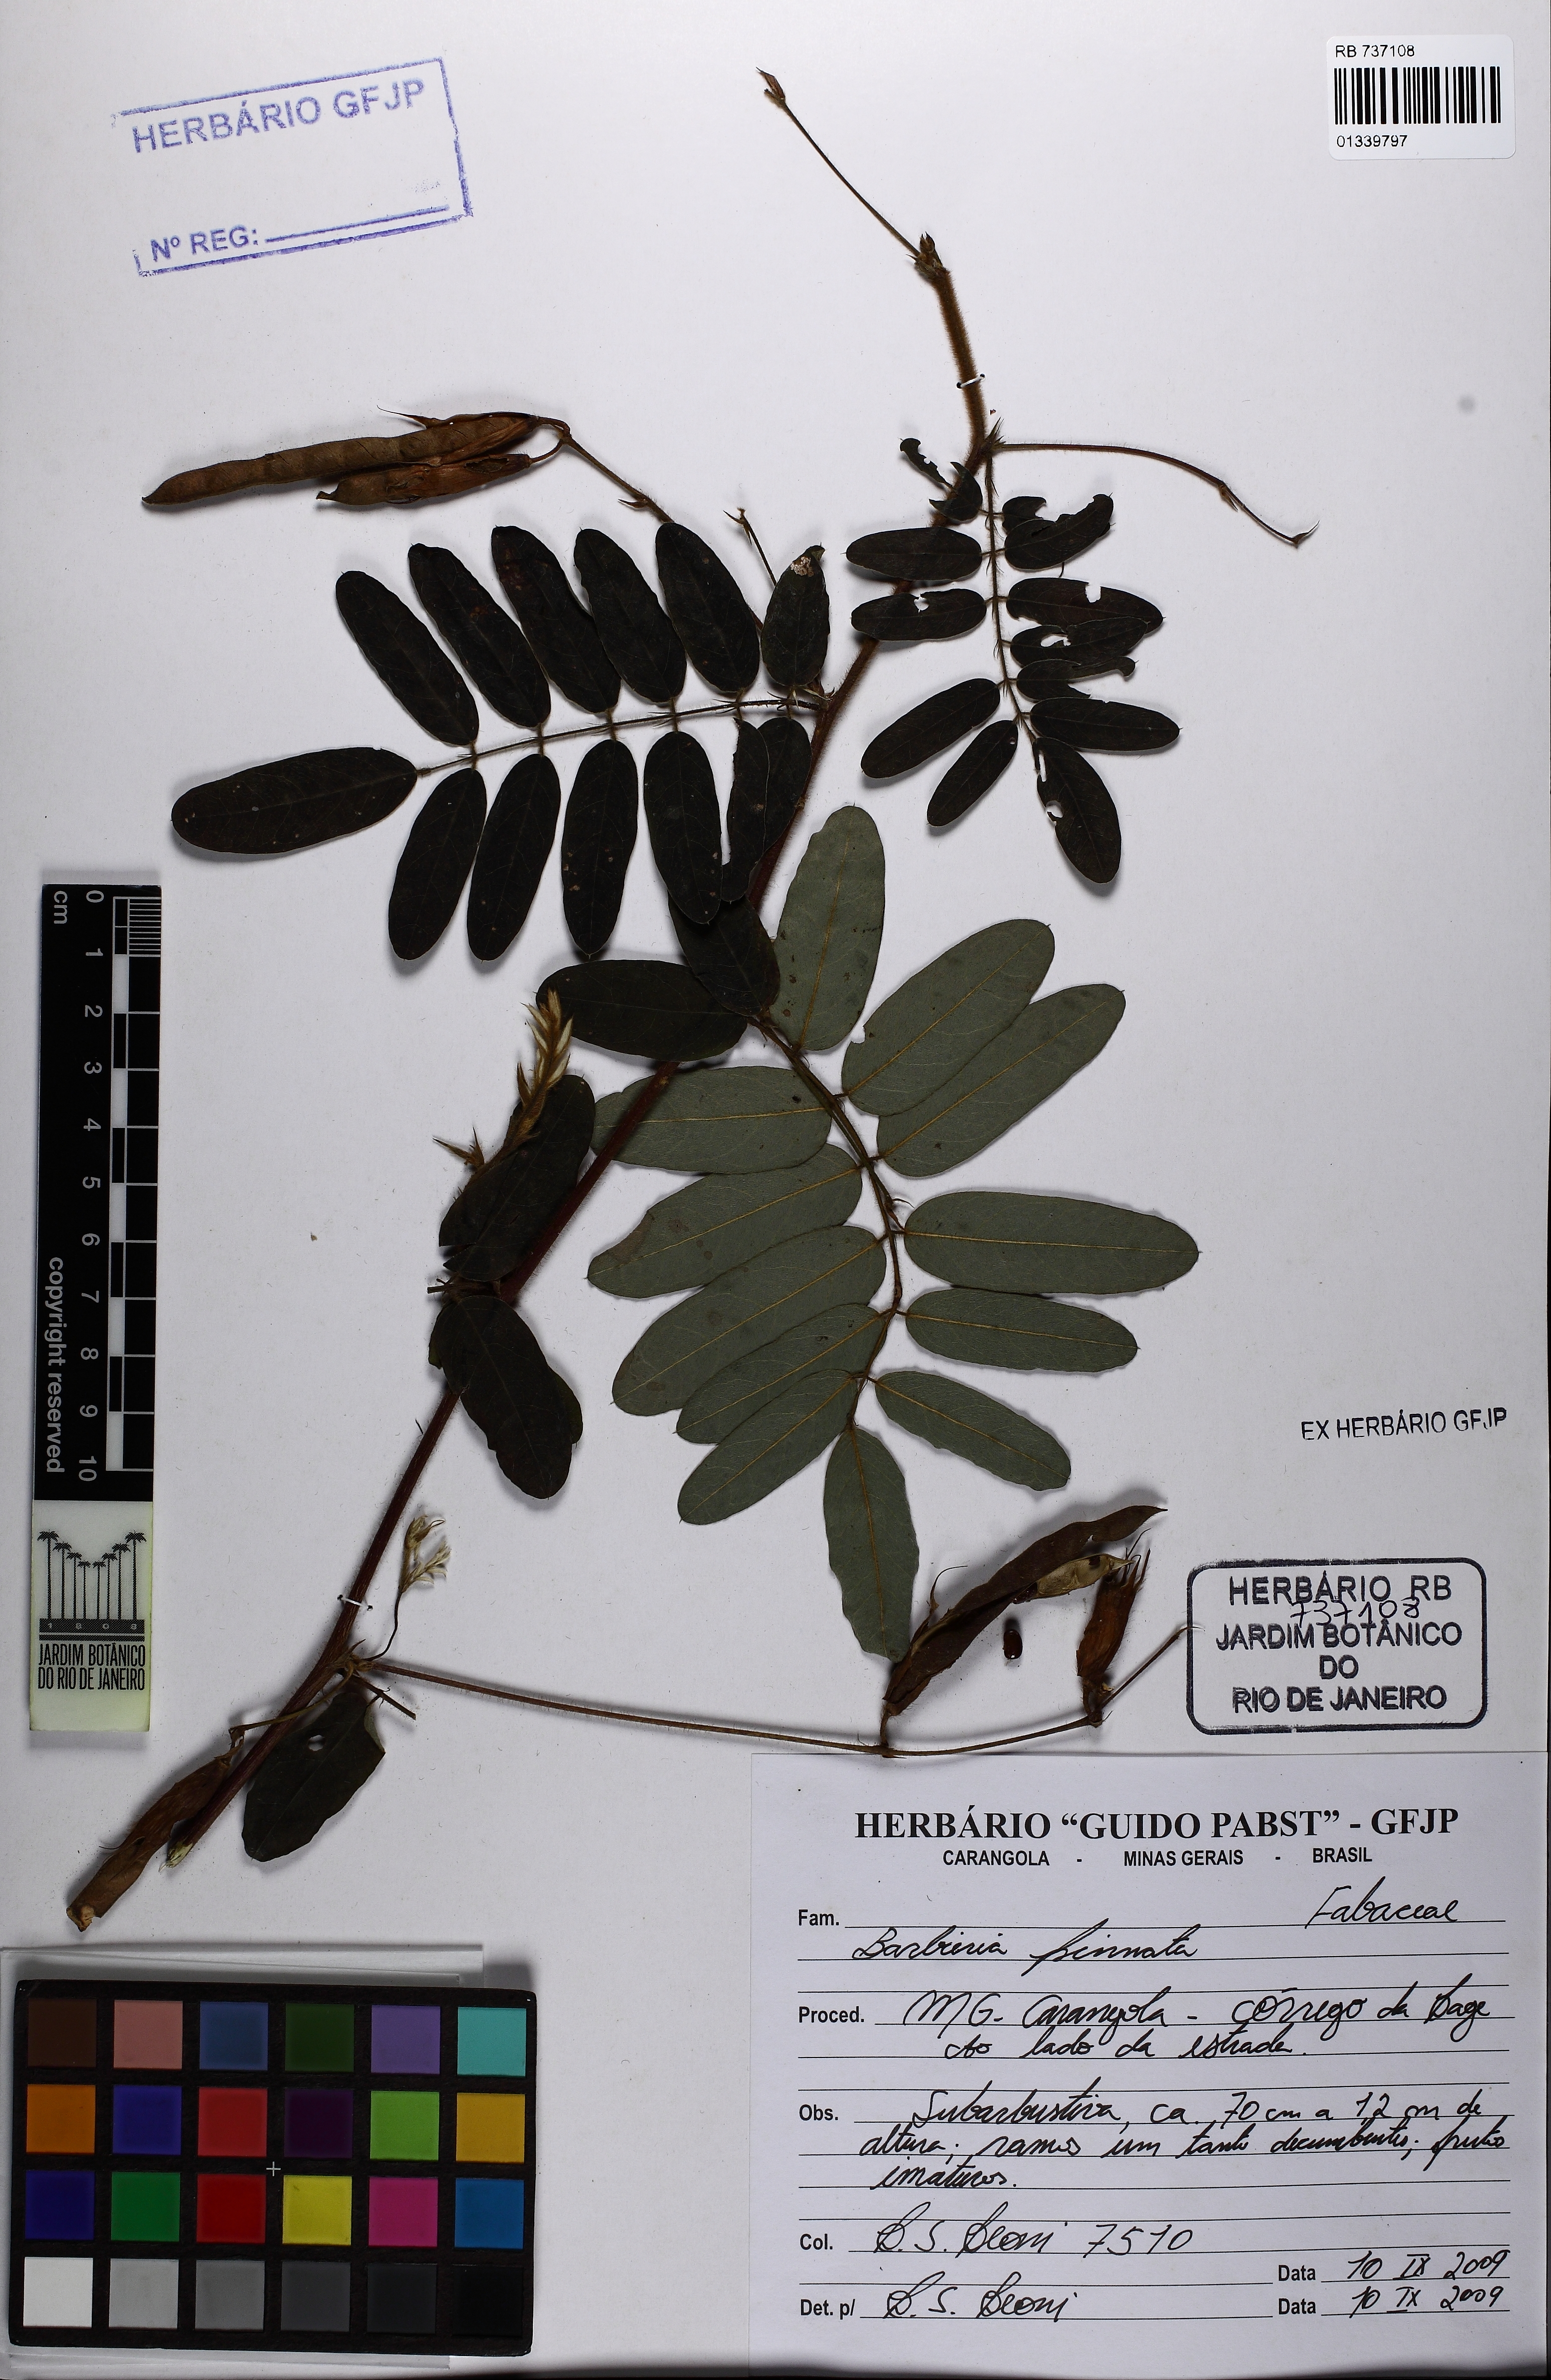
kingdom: Plantae
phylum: Tracheophyta
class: Magnoliopsida
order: Fabales
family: Fabaceae
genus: Barbieria
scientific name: Barbieria pinnata
